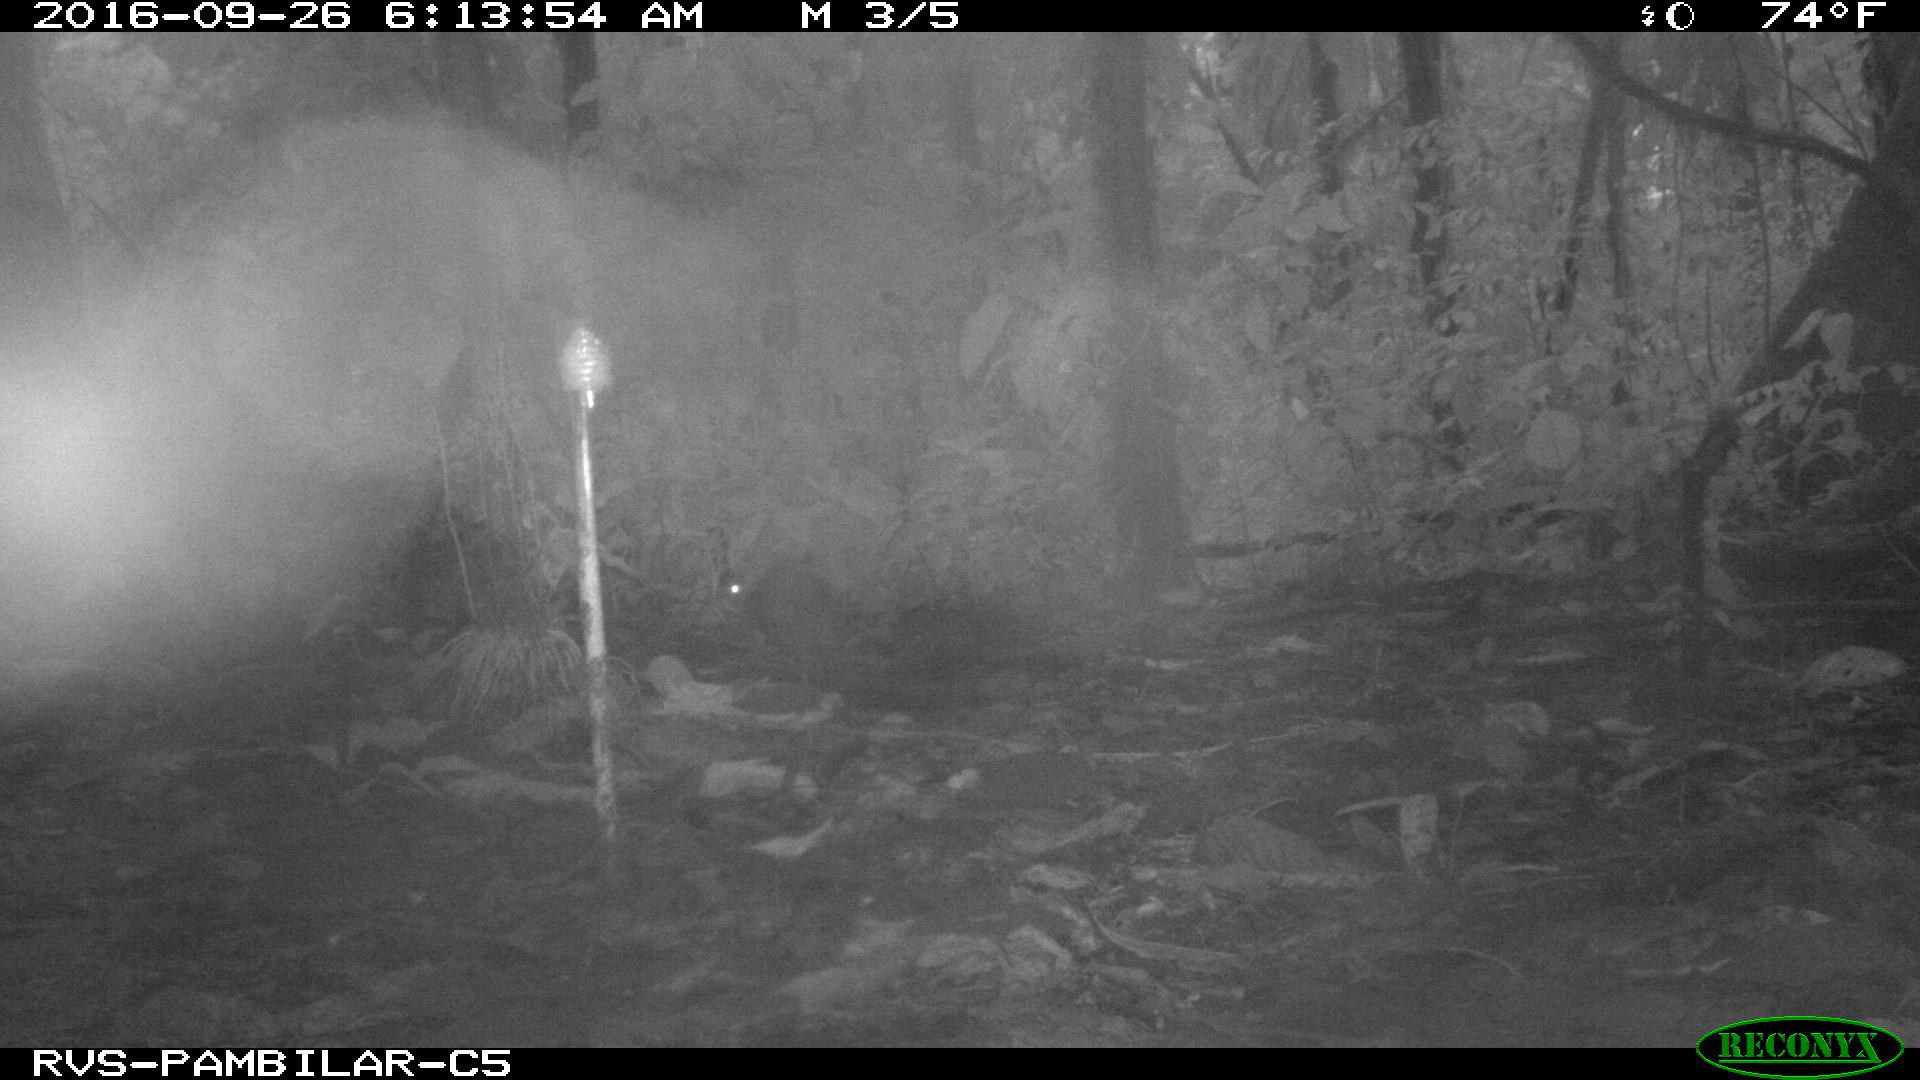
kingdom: Animalia
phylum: Chordata
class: Mammalia
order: Rodentia
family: Dasyproctidae
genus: Dasyprocta
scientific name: Dasyprocta punctata
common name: Central american agouti
